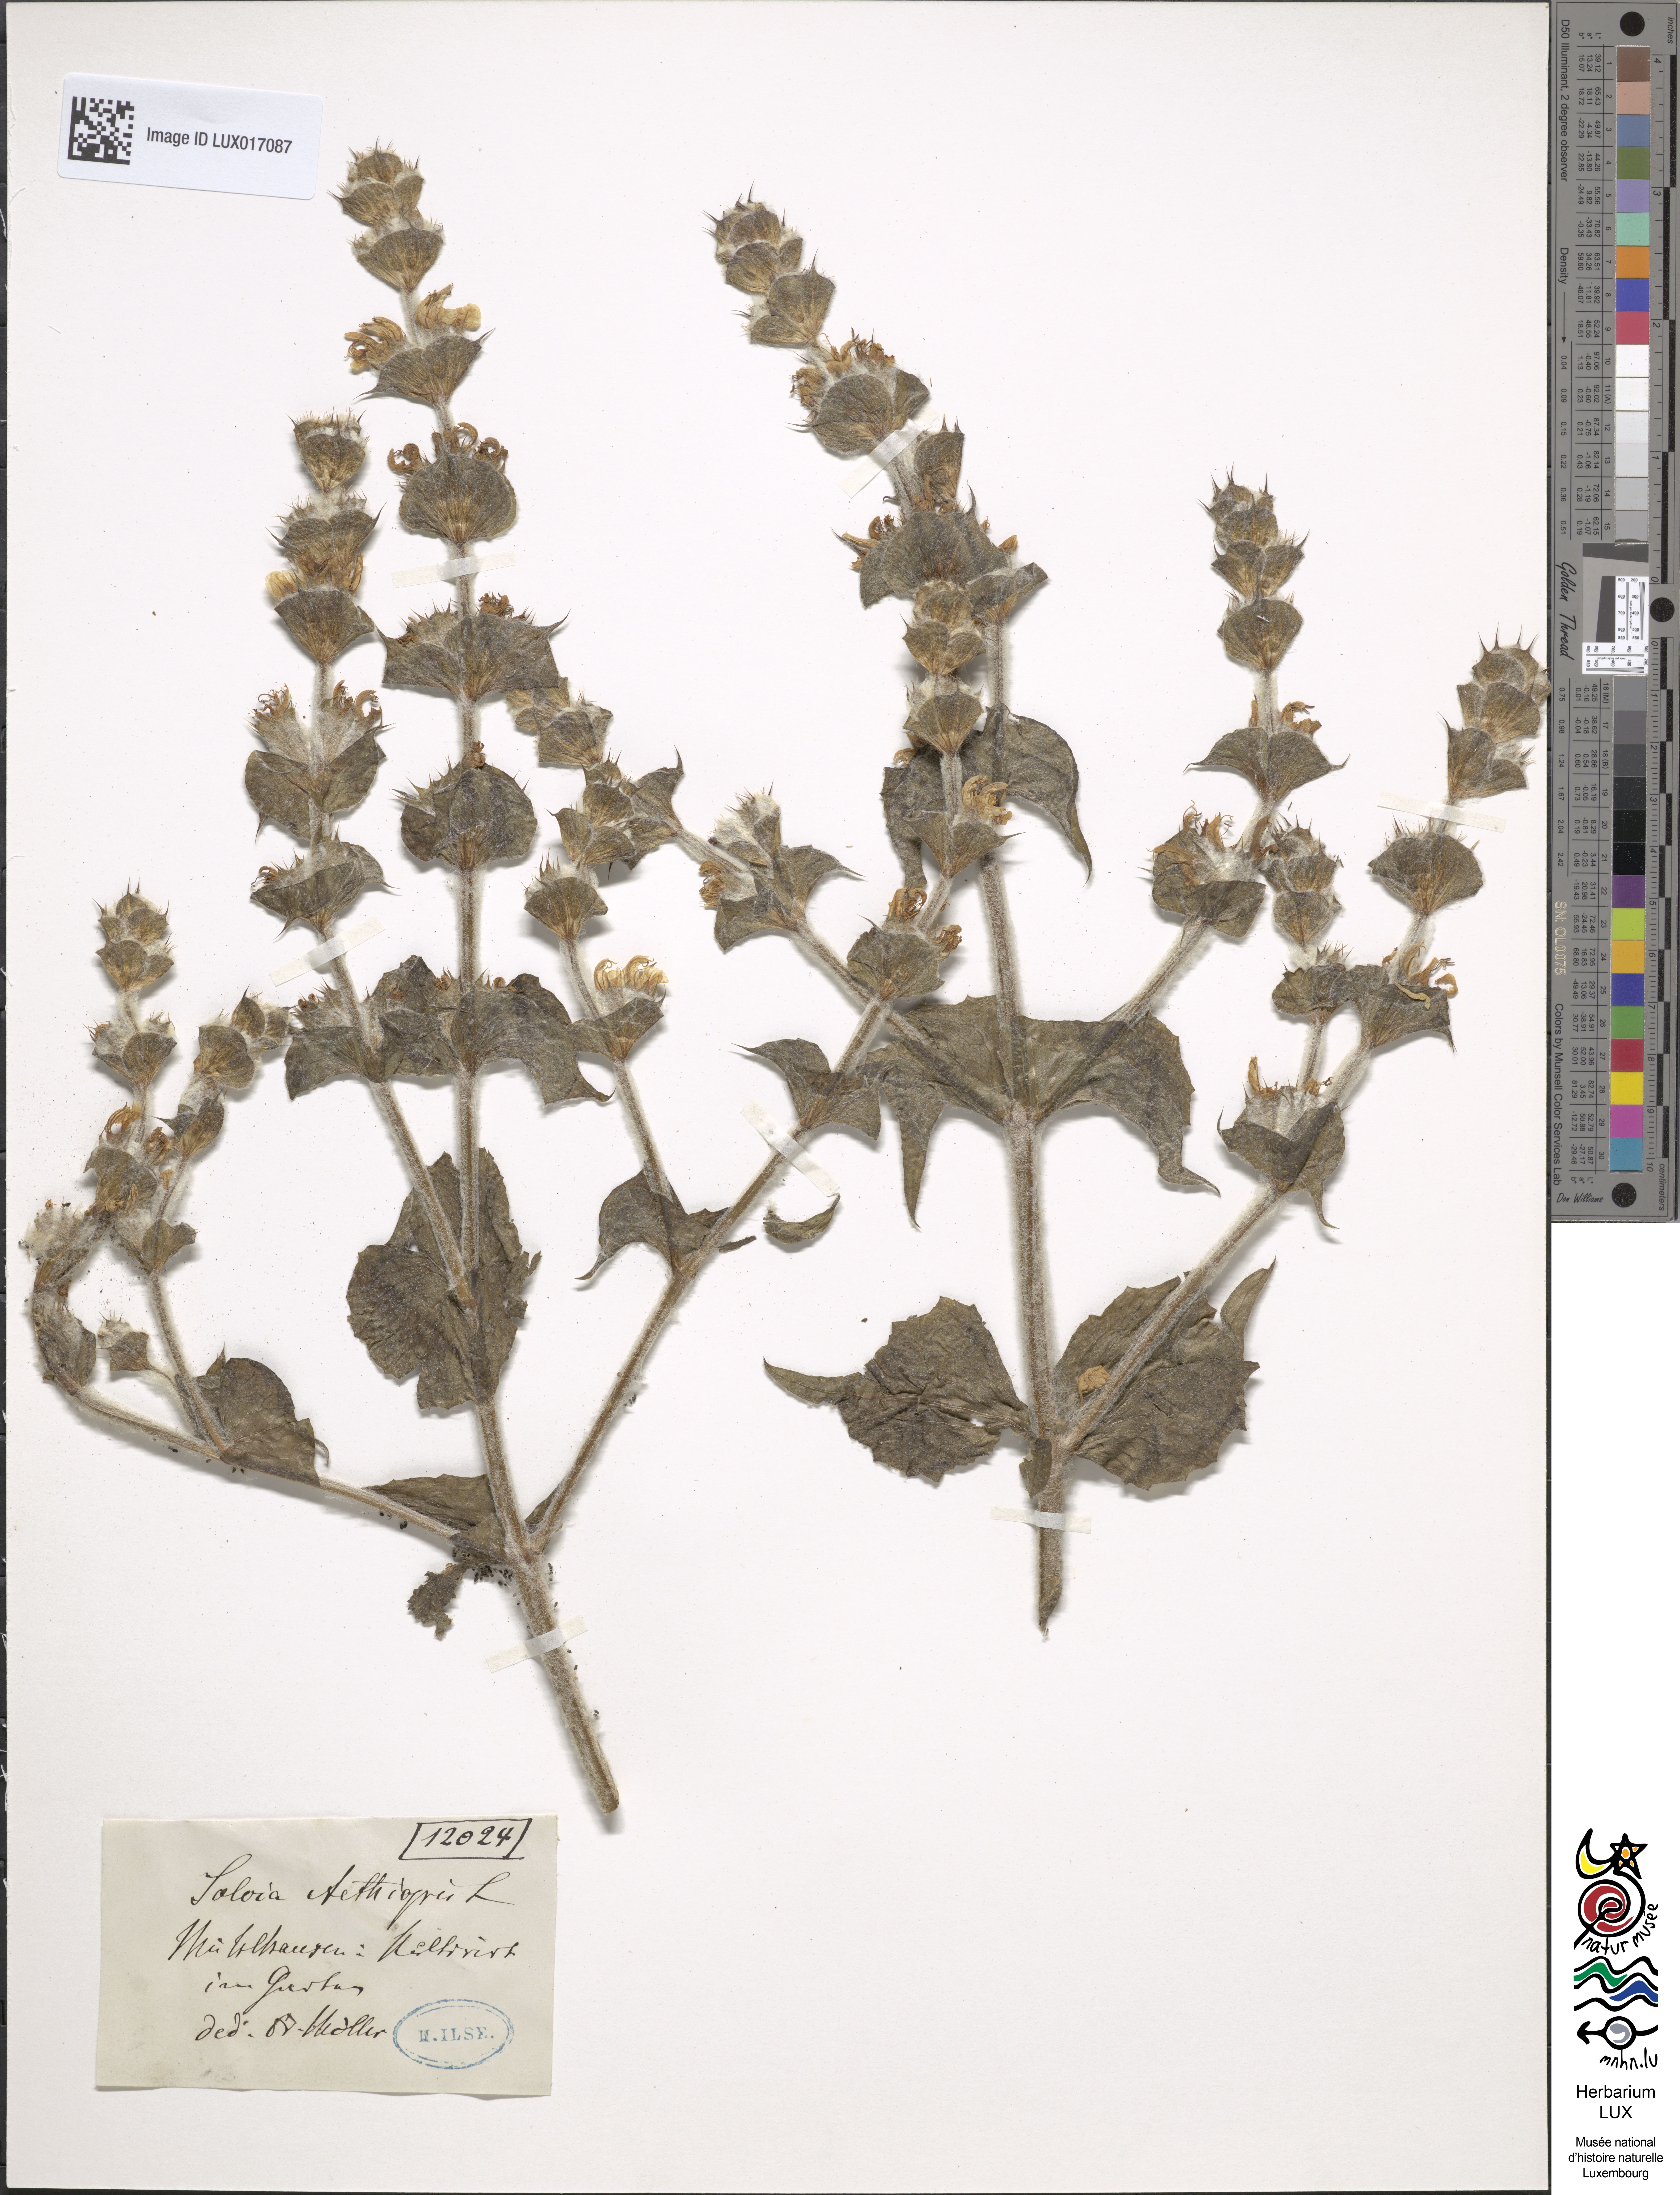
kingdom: Plantae
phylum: Tracheophyta
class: Magnoliopsida
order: Lamiales
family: Lamiaceae
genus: Salvia
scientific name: Salvia aethiopis
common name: Mediterranean sage
